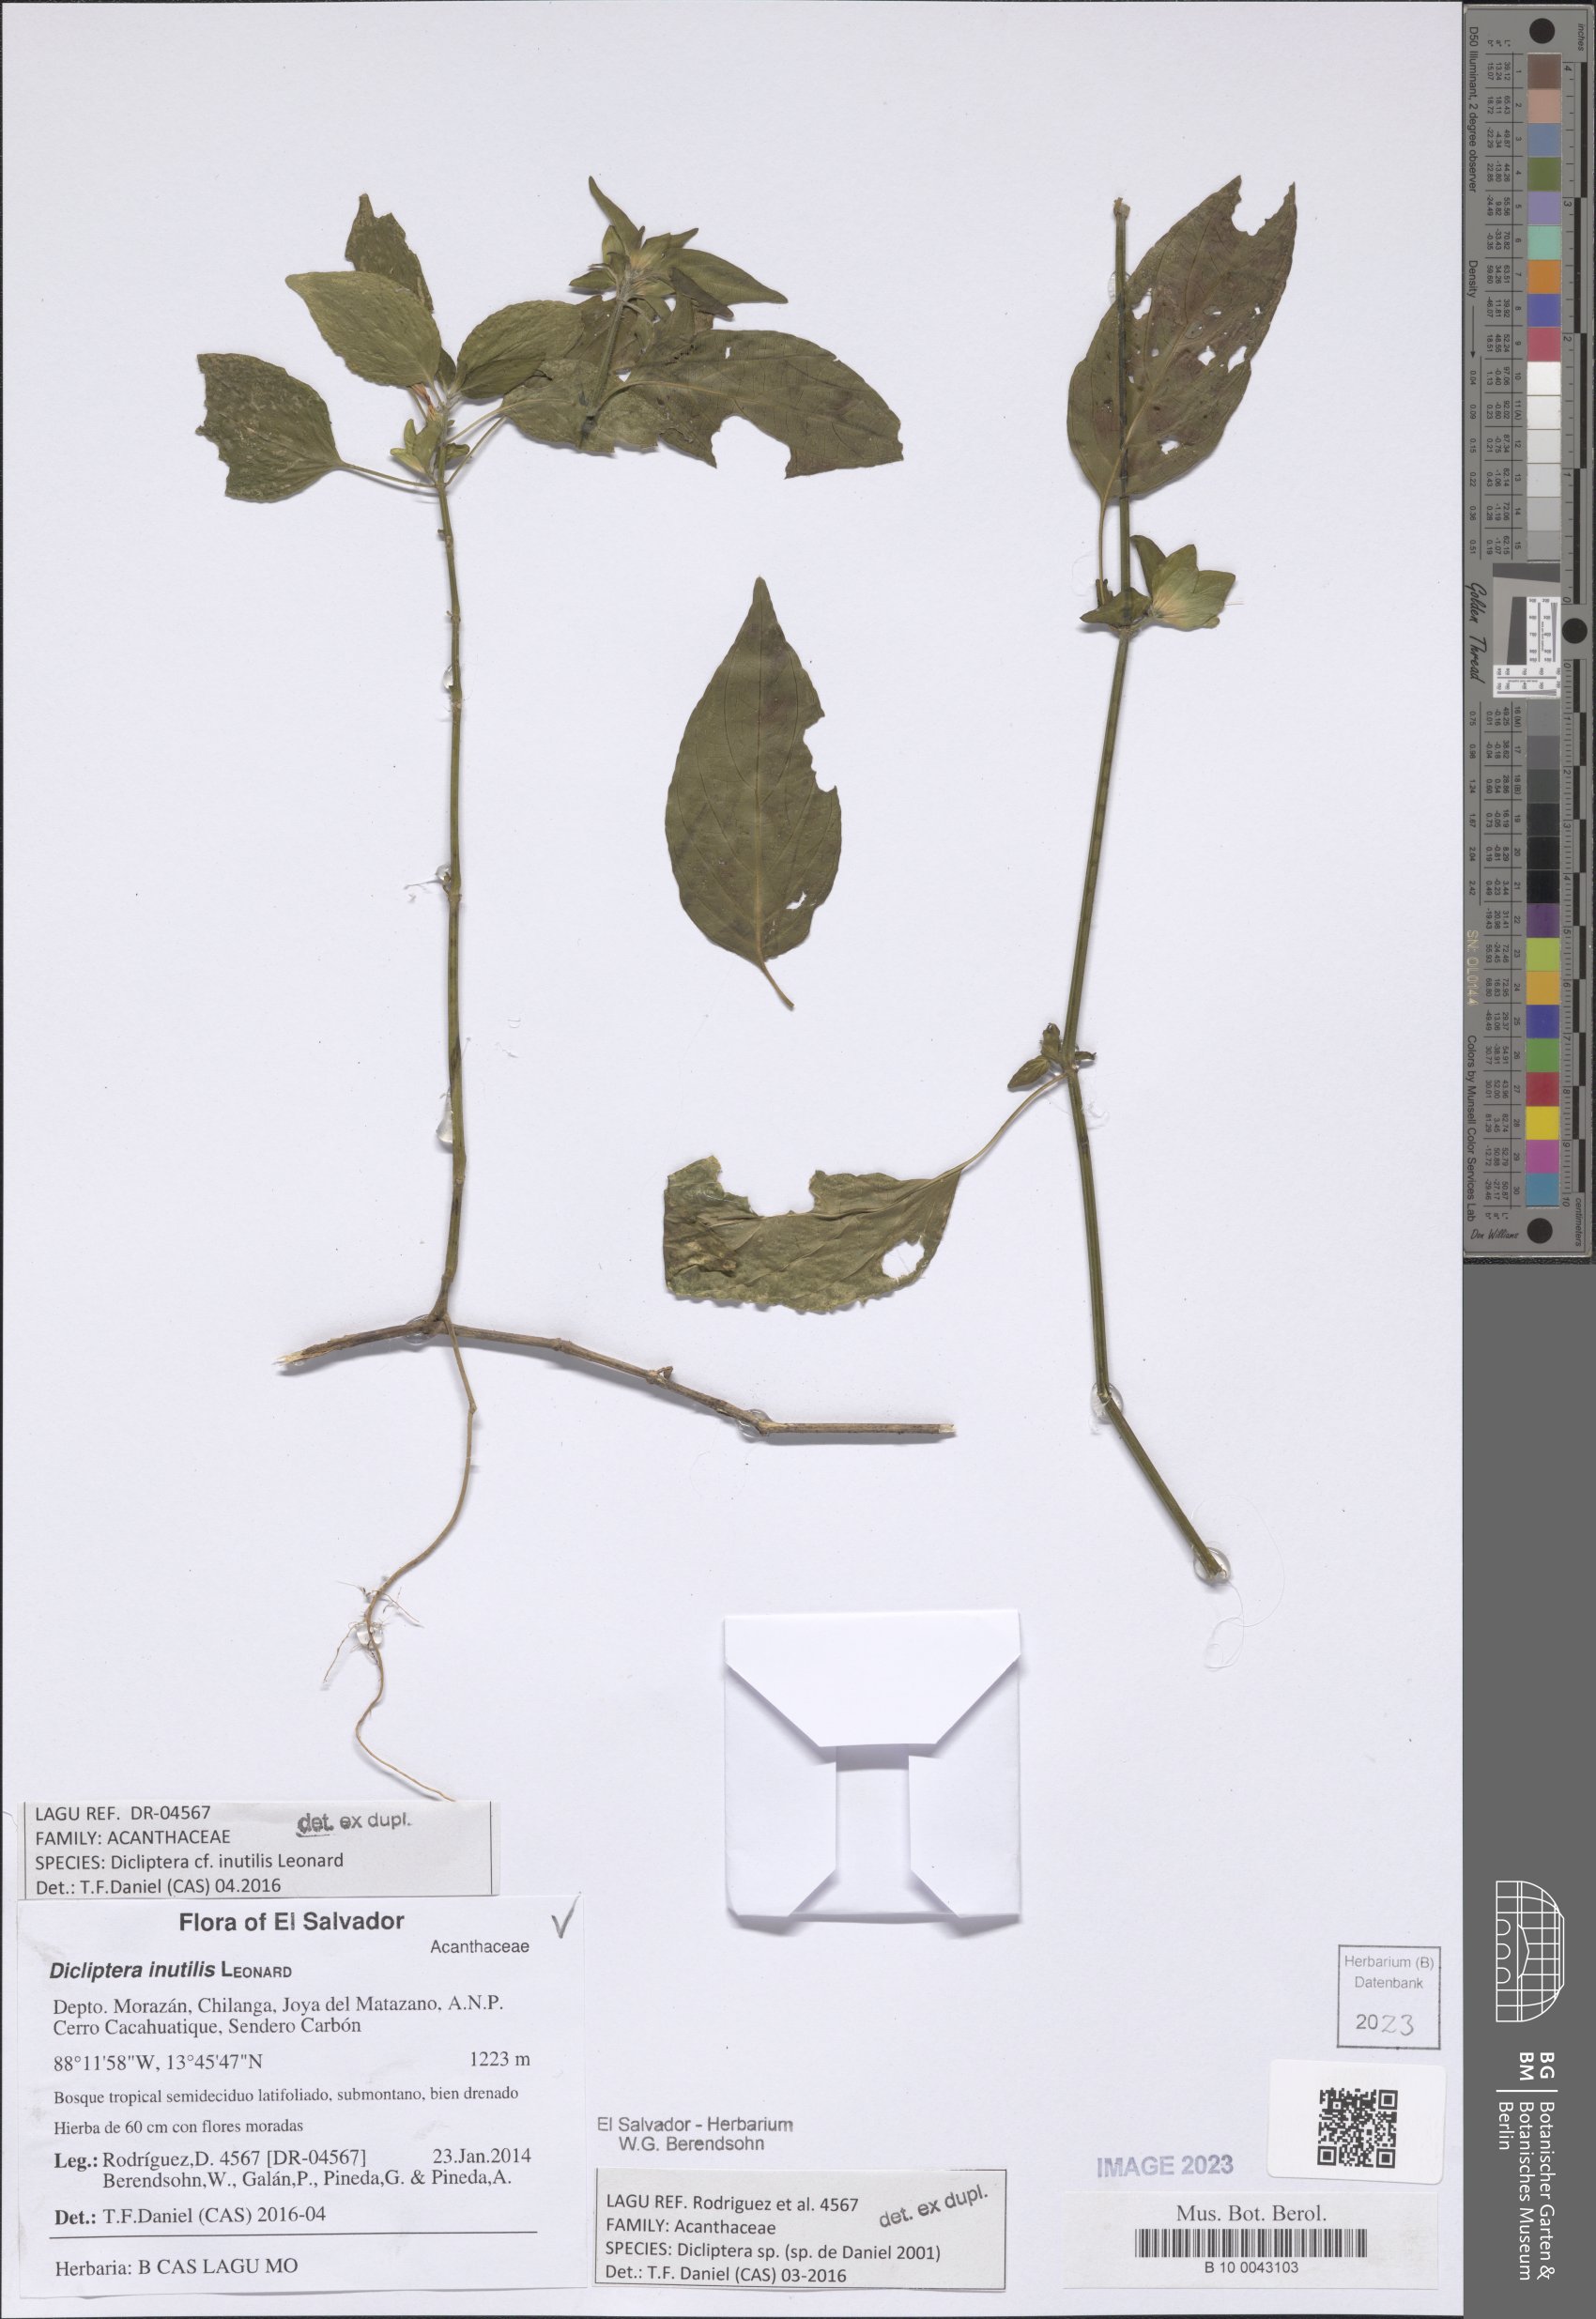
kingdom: Plantae
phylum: Tracheophyta
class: Magnoliopsida
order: Lamiales
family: Acanthaceae
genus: Dicliptera
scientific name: Dicliptera inutilis
